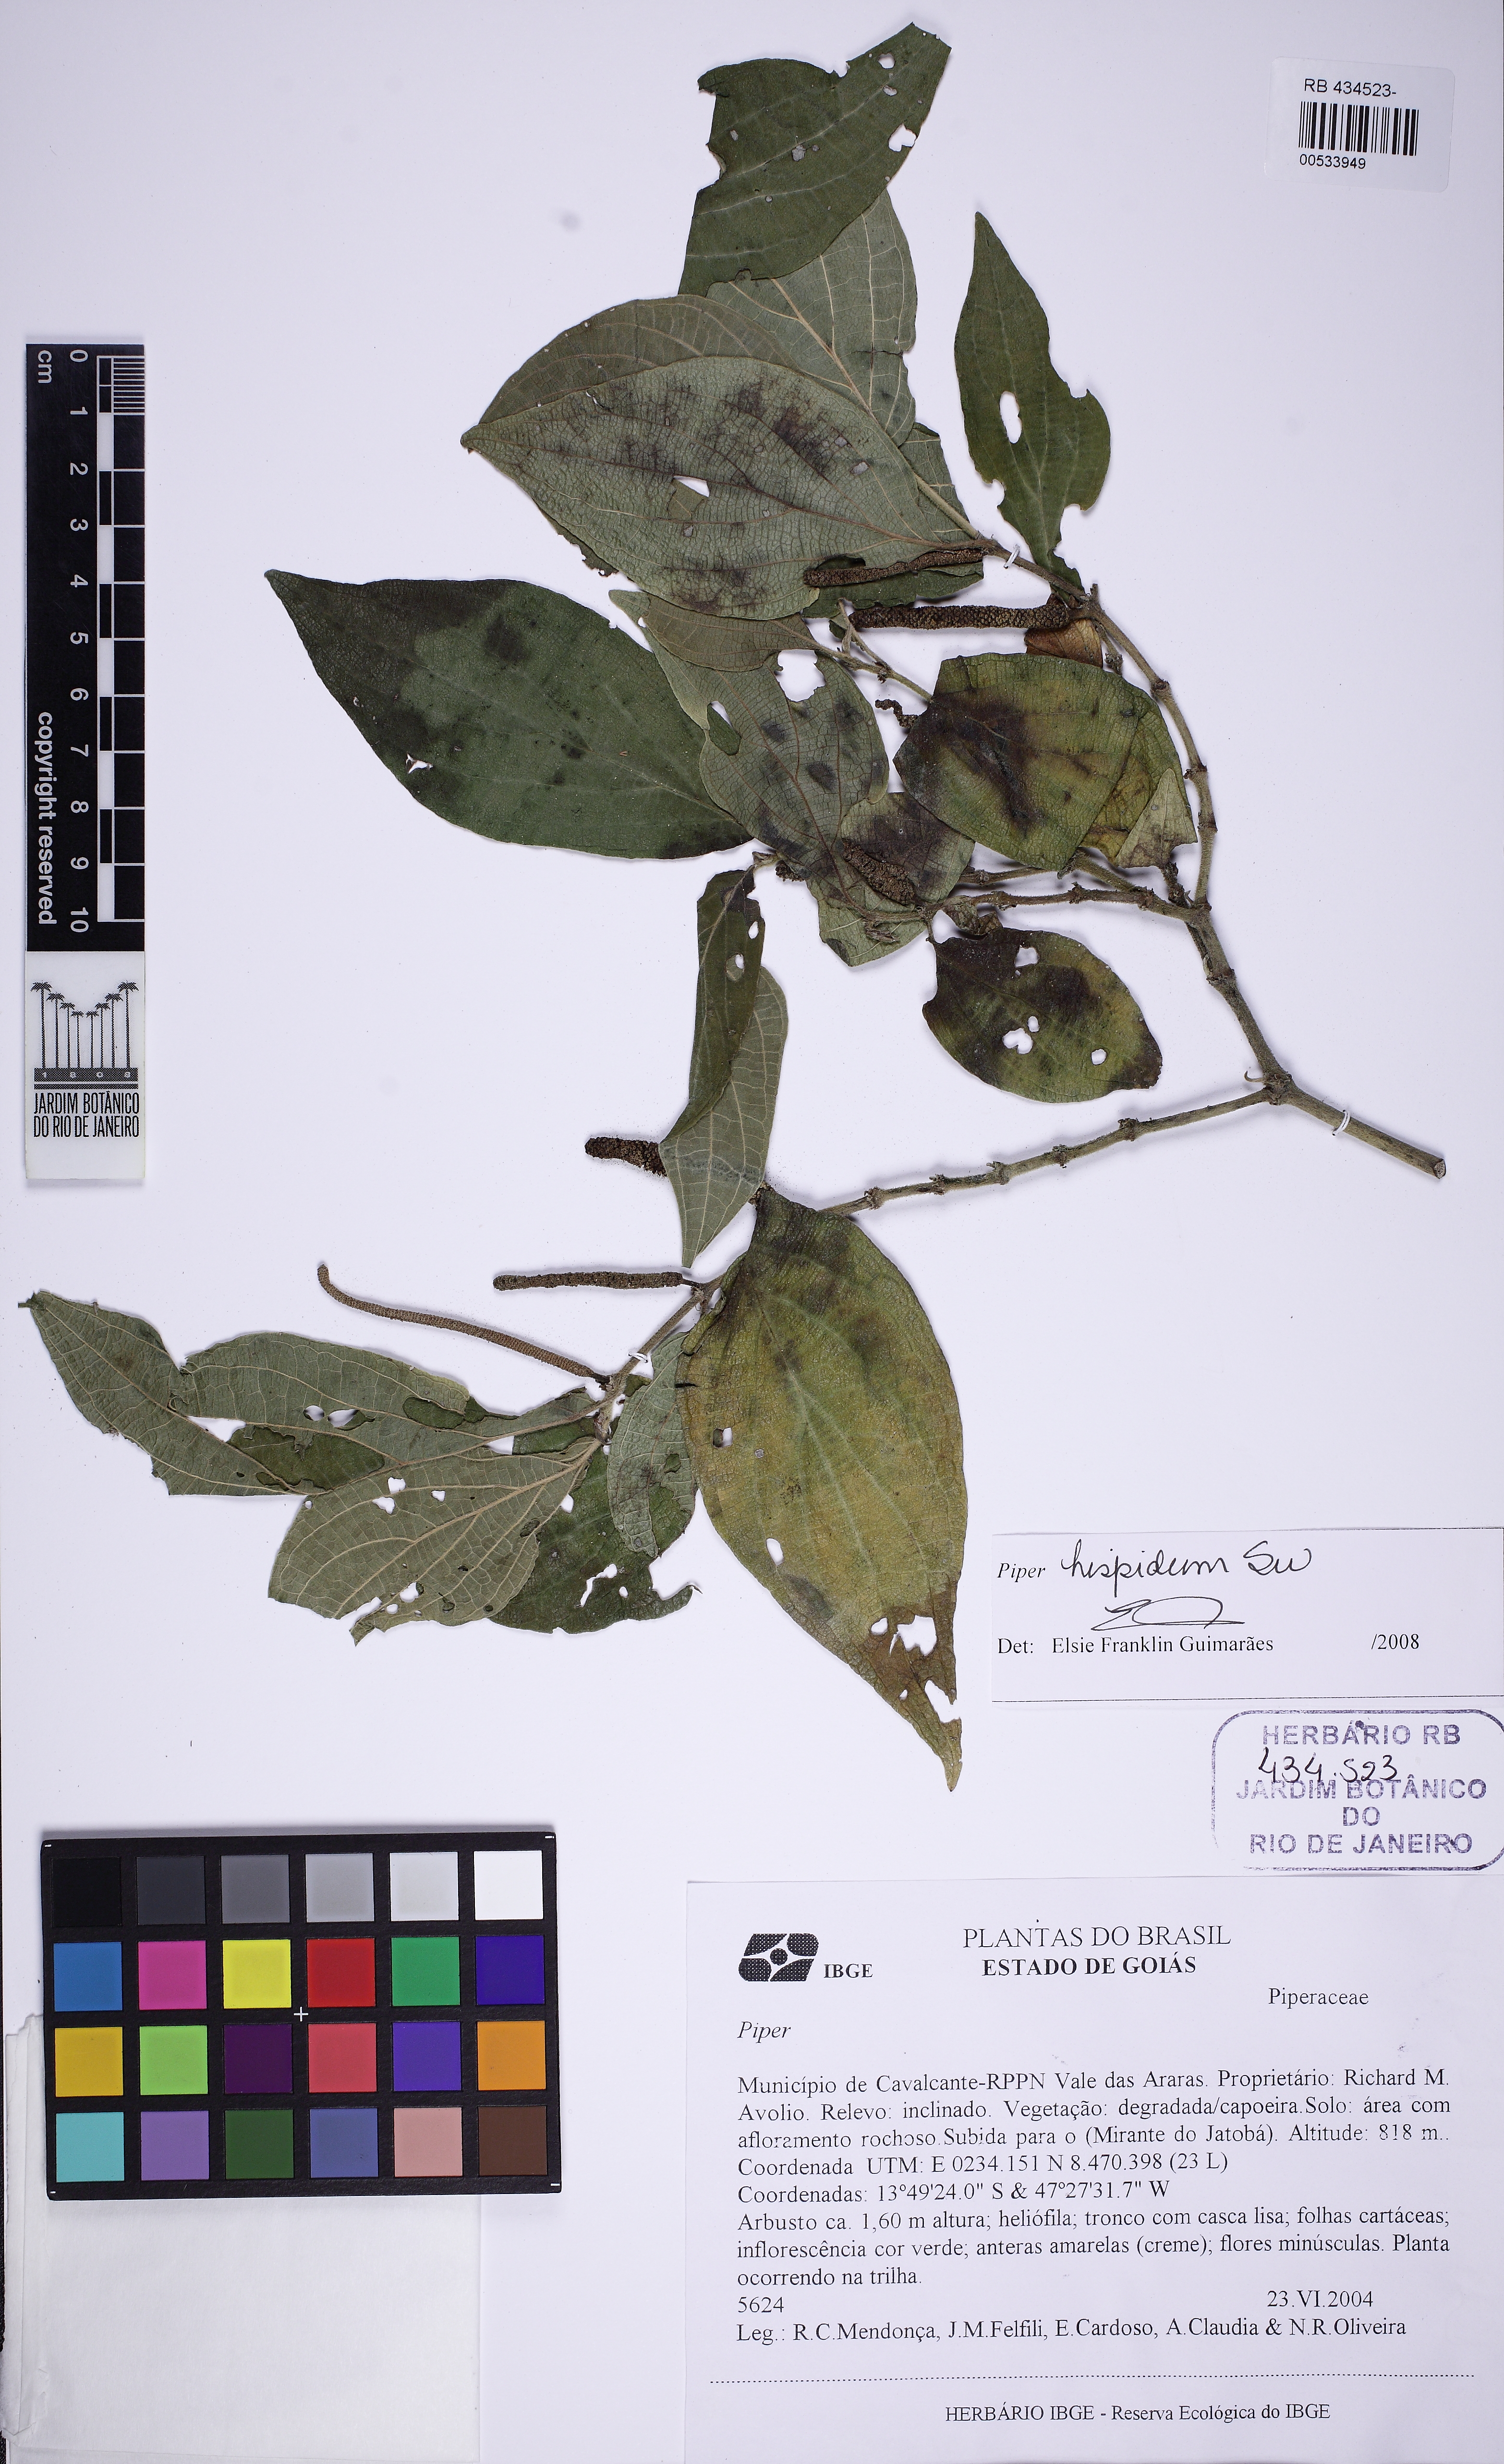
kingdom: Plantae
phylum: Tracheophyta
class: Magnoliopsida
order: Piperales
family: Piperaceae
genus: Piper
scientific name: Piper hispidum
